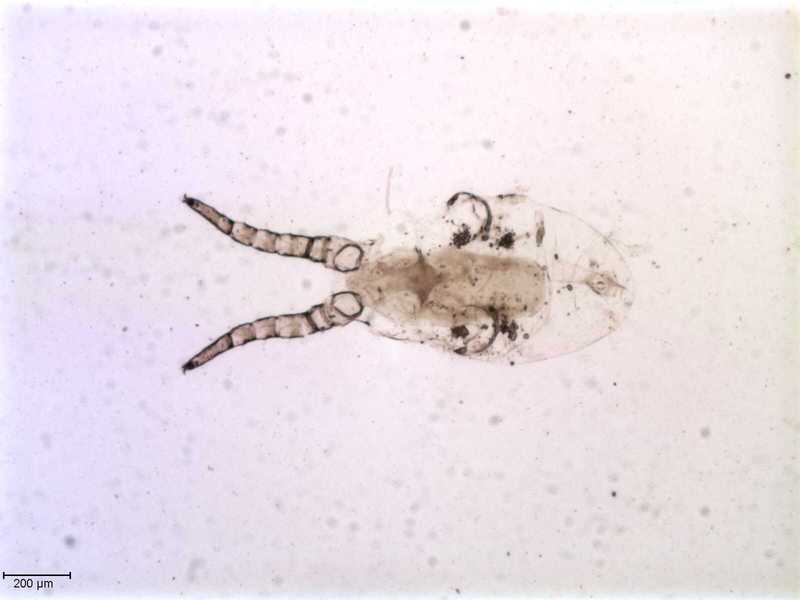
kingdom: Animalia
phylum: Arthropoda
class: Arachnida
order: Mesostigmata
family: Halarachnidae
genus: Orthohalarachne
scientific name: Orthohalarachne letalis
